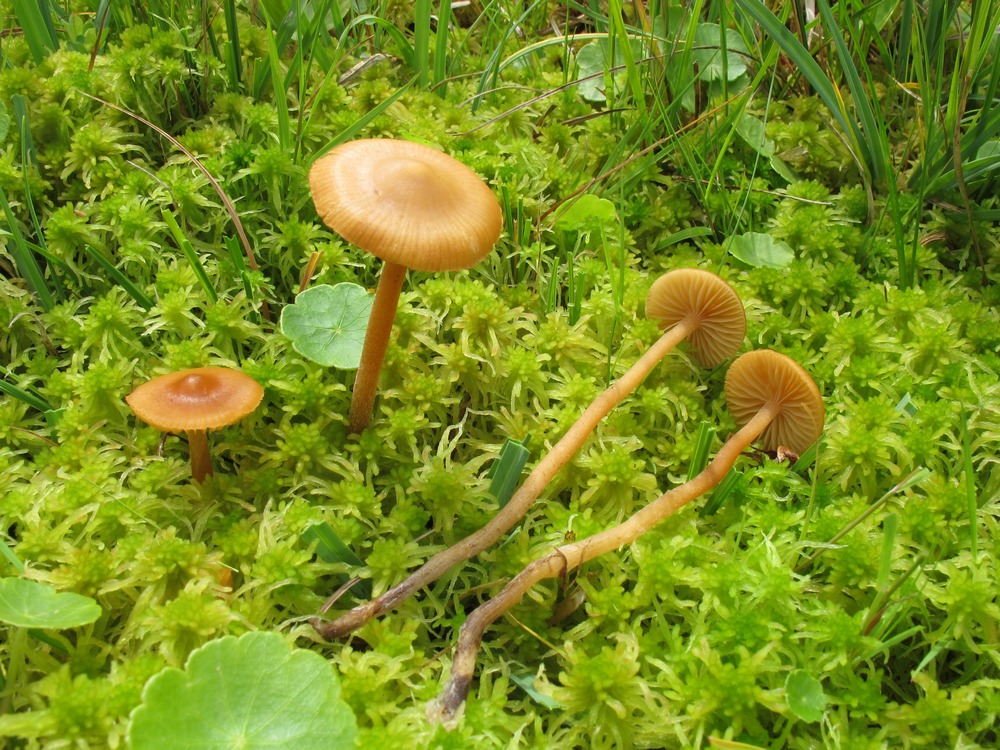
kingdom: Fungi
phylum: Basidiomycota
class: Agaricomycetes
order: Agaricales
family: Hymenogastraceae
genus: Galerina
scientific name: Galerina hybrida
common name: hængesæk-hjelmhat
